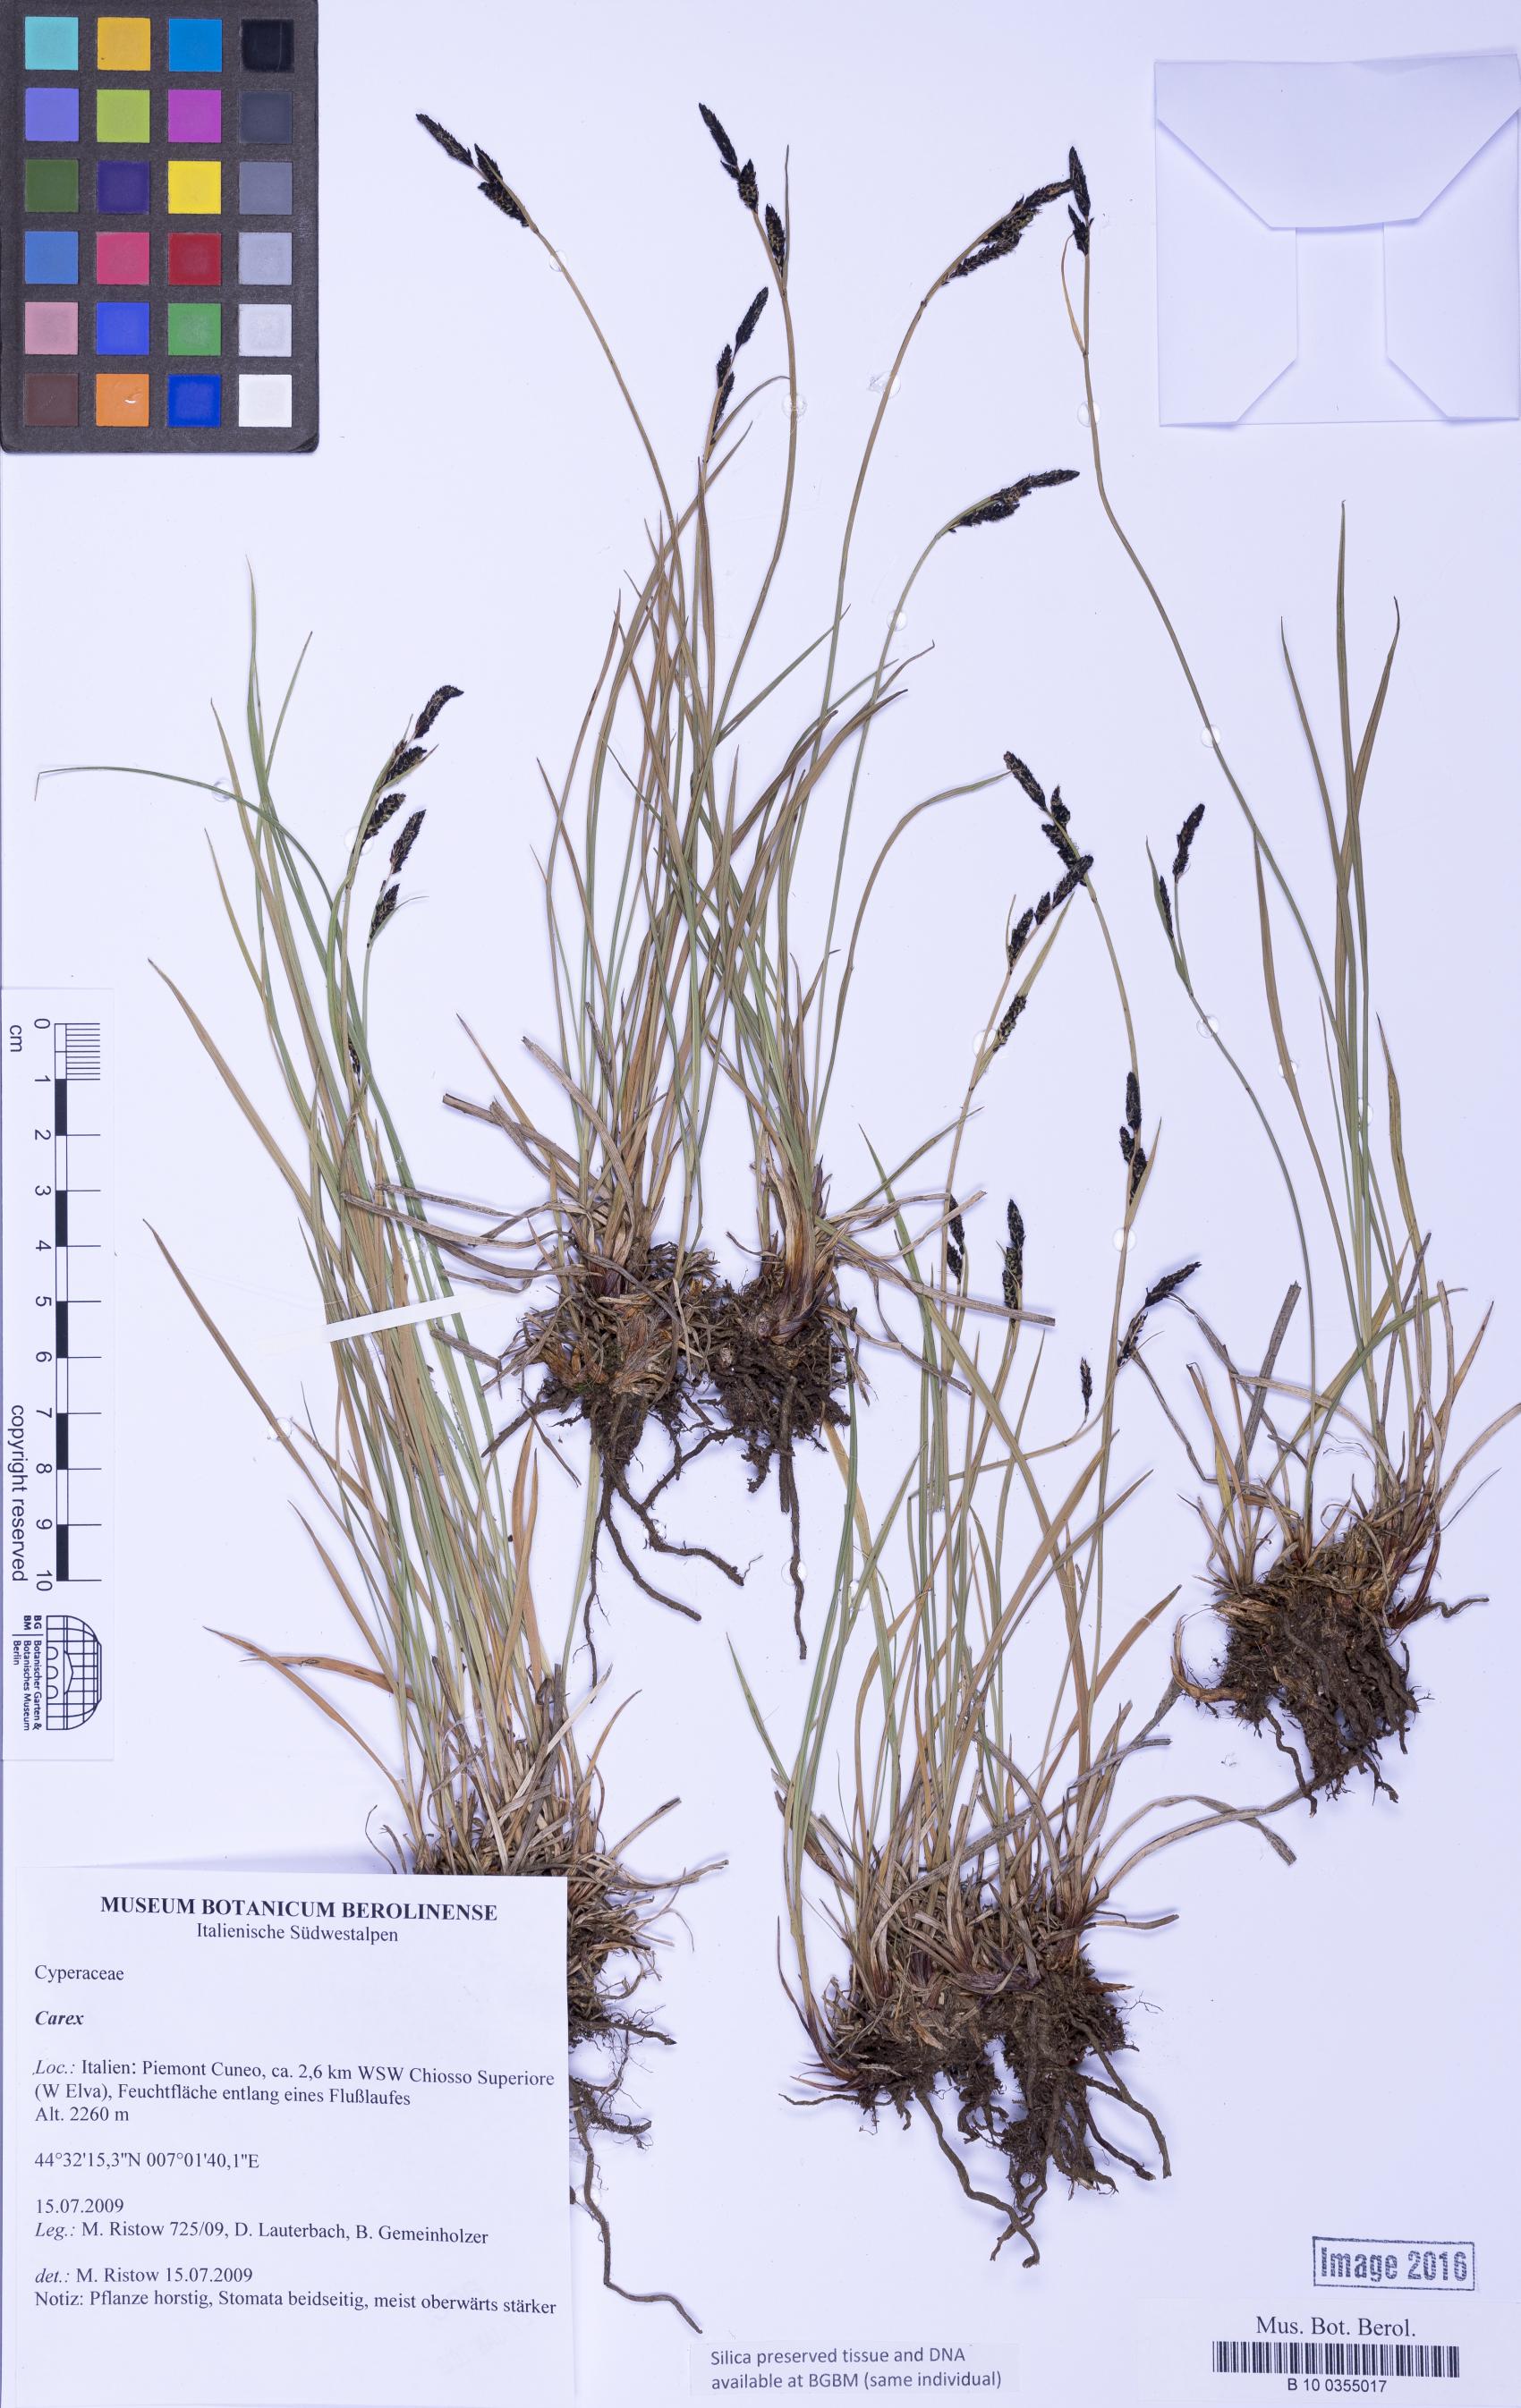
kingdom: Plantae
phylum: Tracheophyta
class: Liliopsida
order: Poales
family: Cyperaceae
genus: Carex
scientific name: Carex
